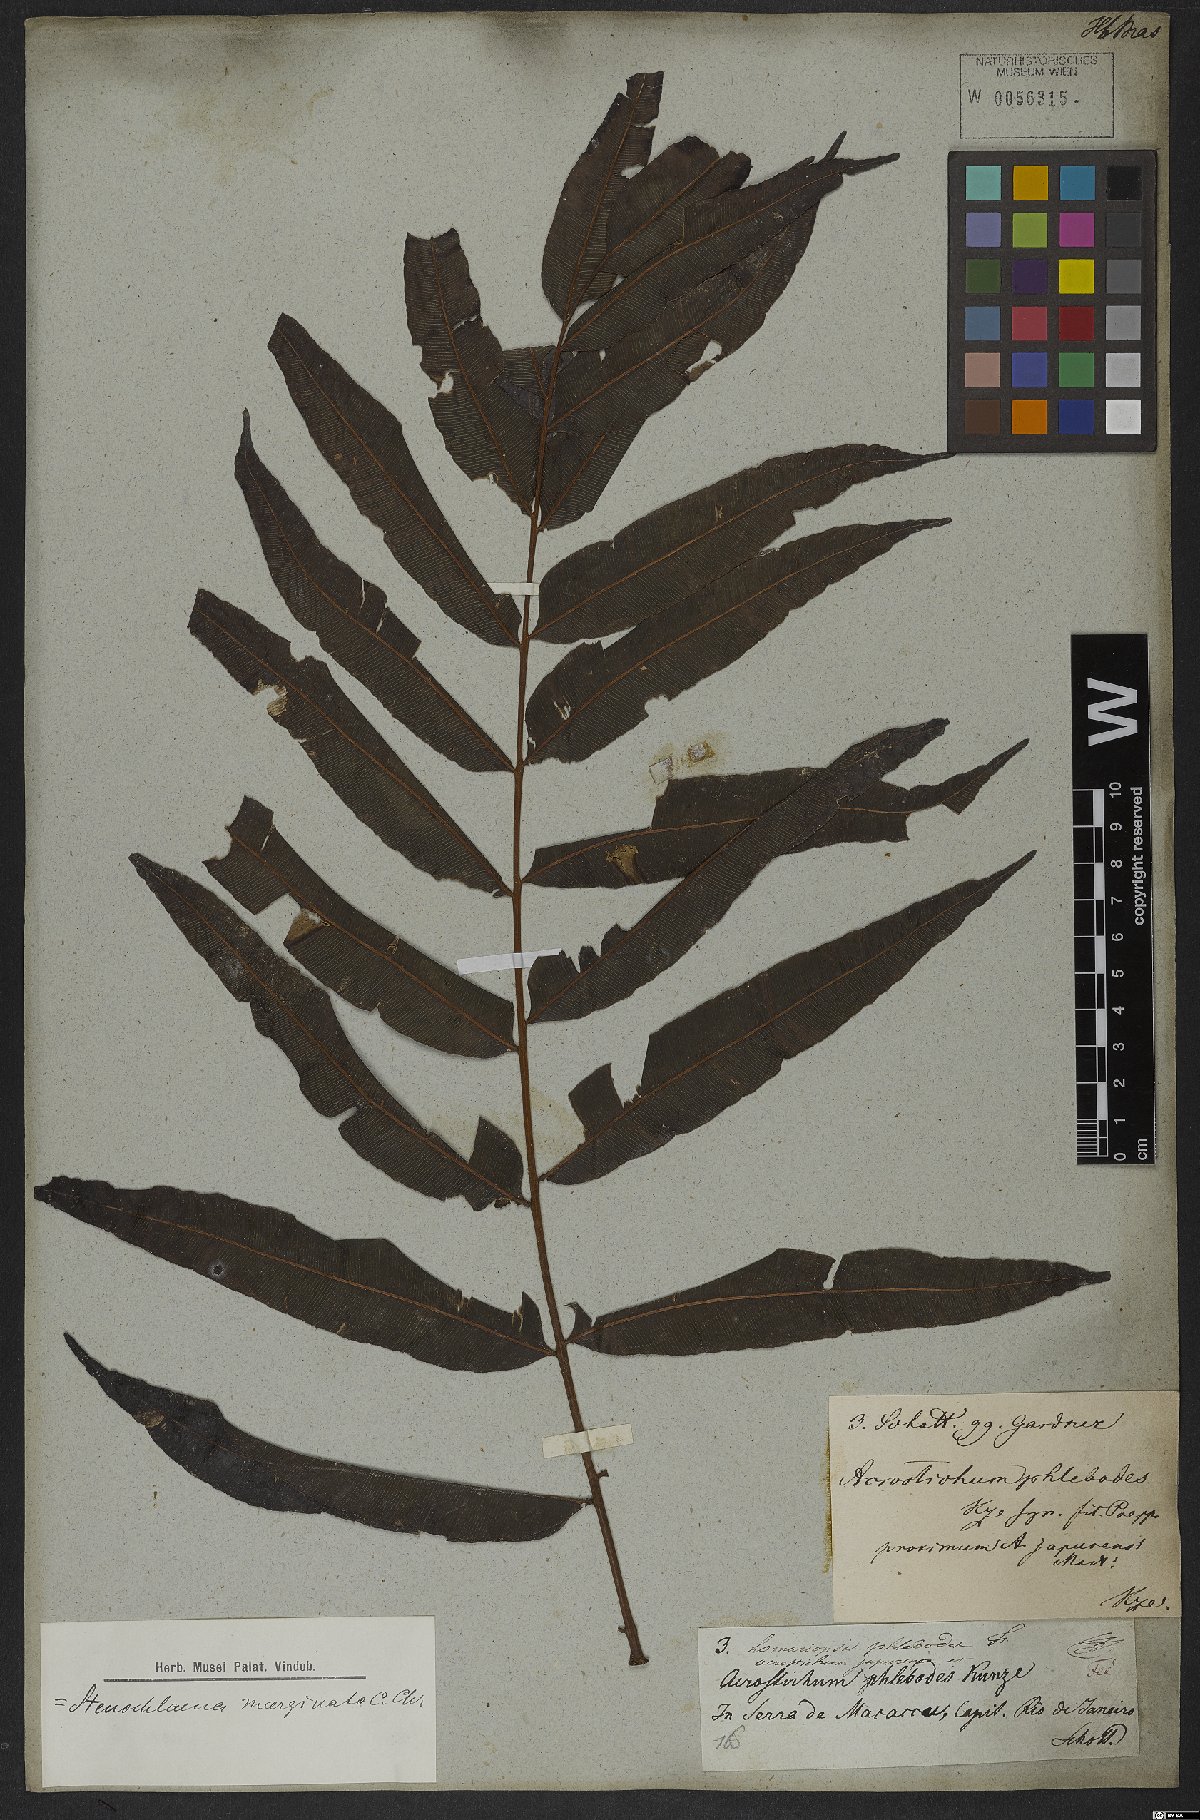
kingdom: Plantae
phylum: Tracheophyta
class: Polypodiopsida
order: Polypodiales
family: Lomariopsidaceae
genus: Lomariopsis
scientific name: Lomariopsis marginata
